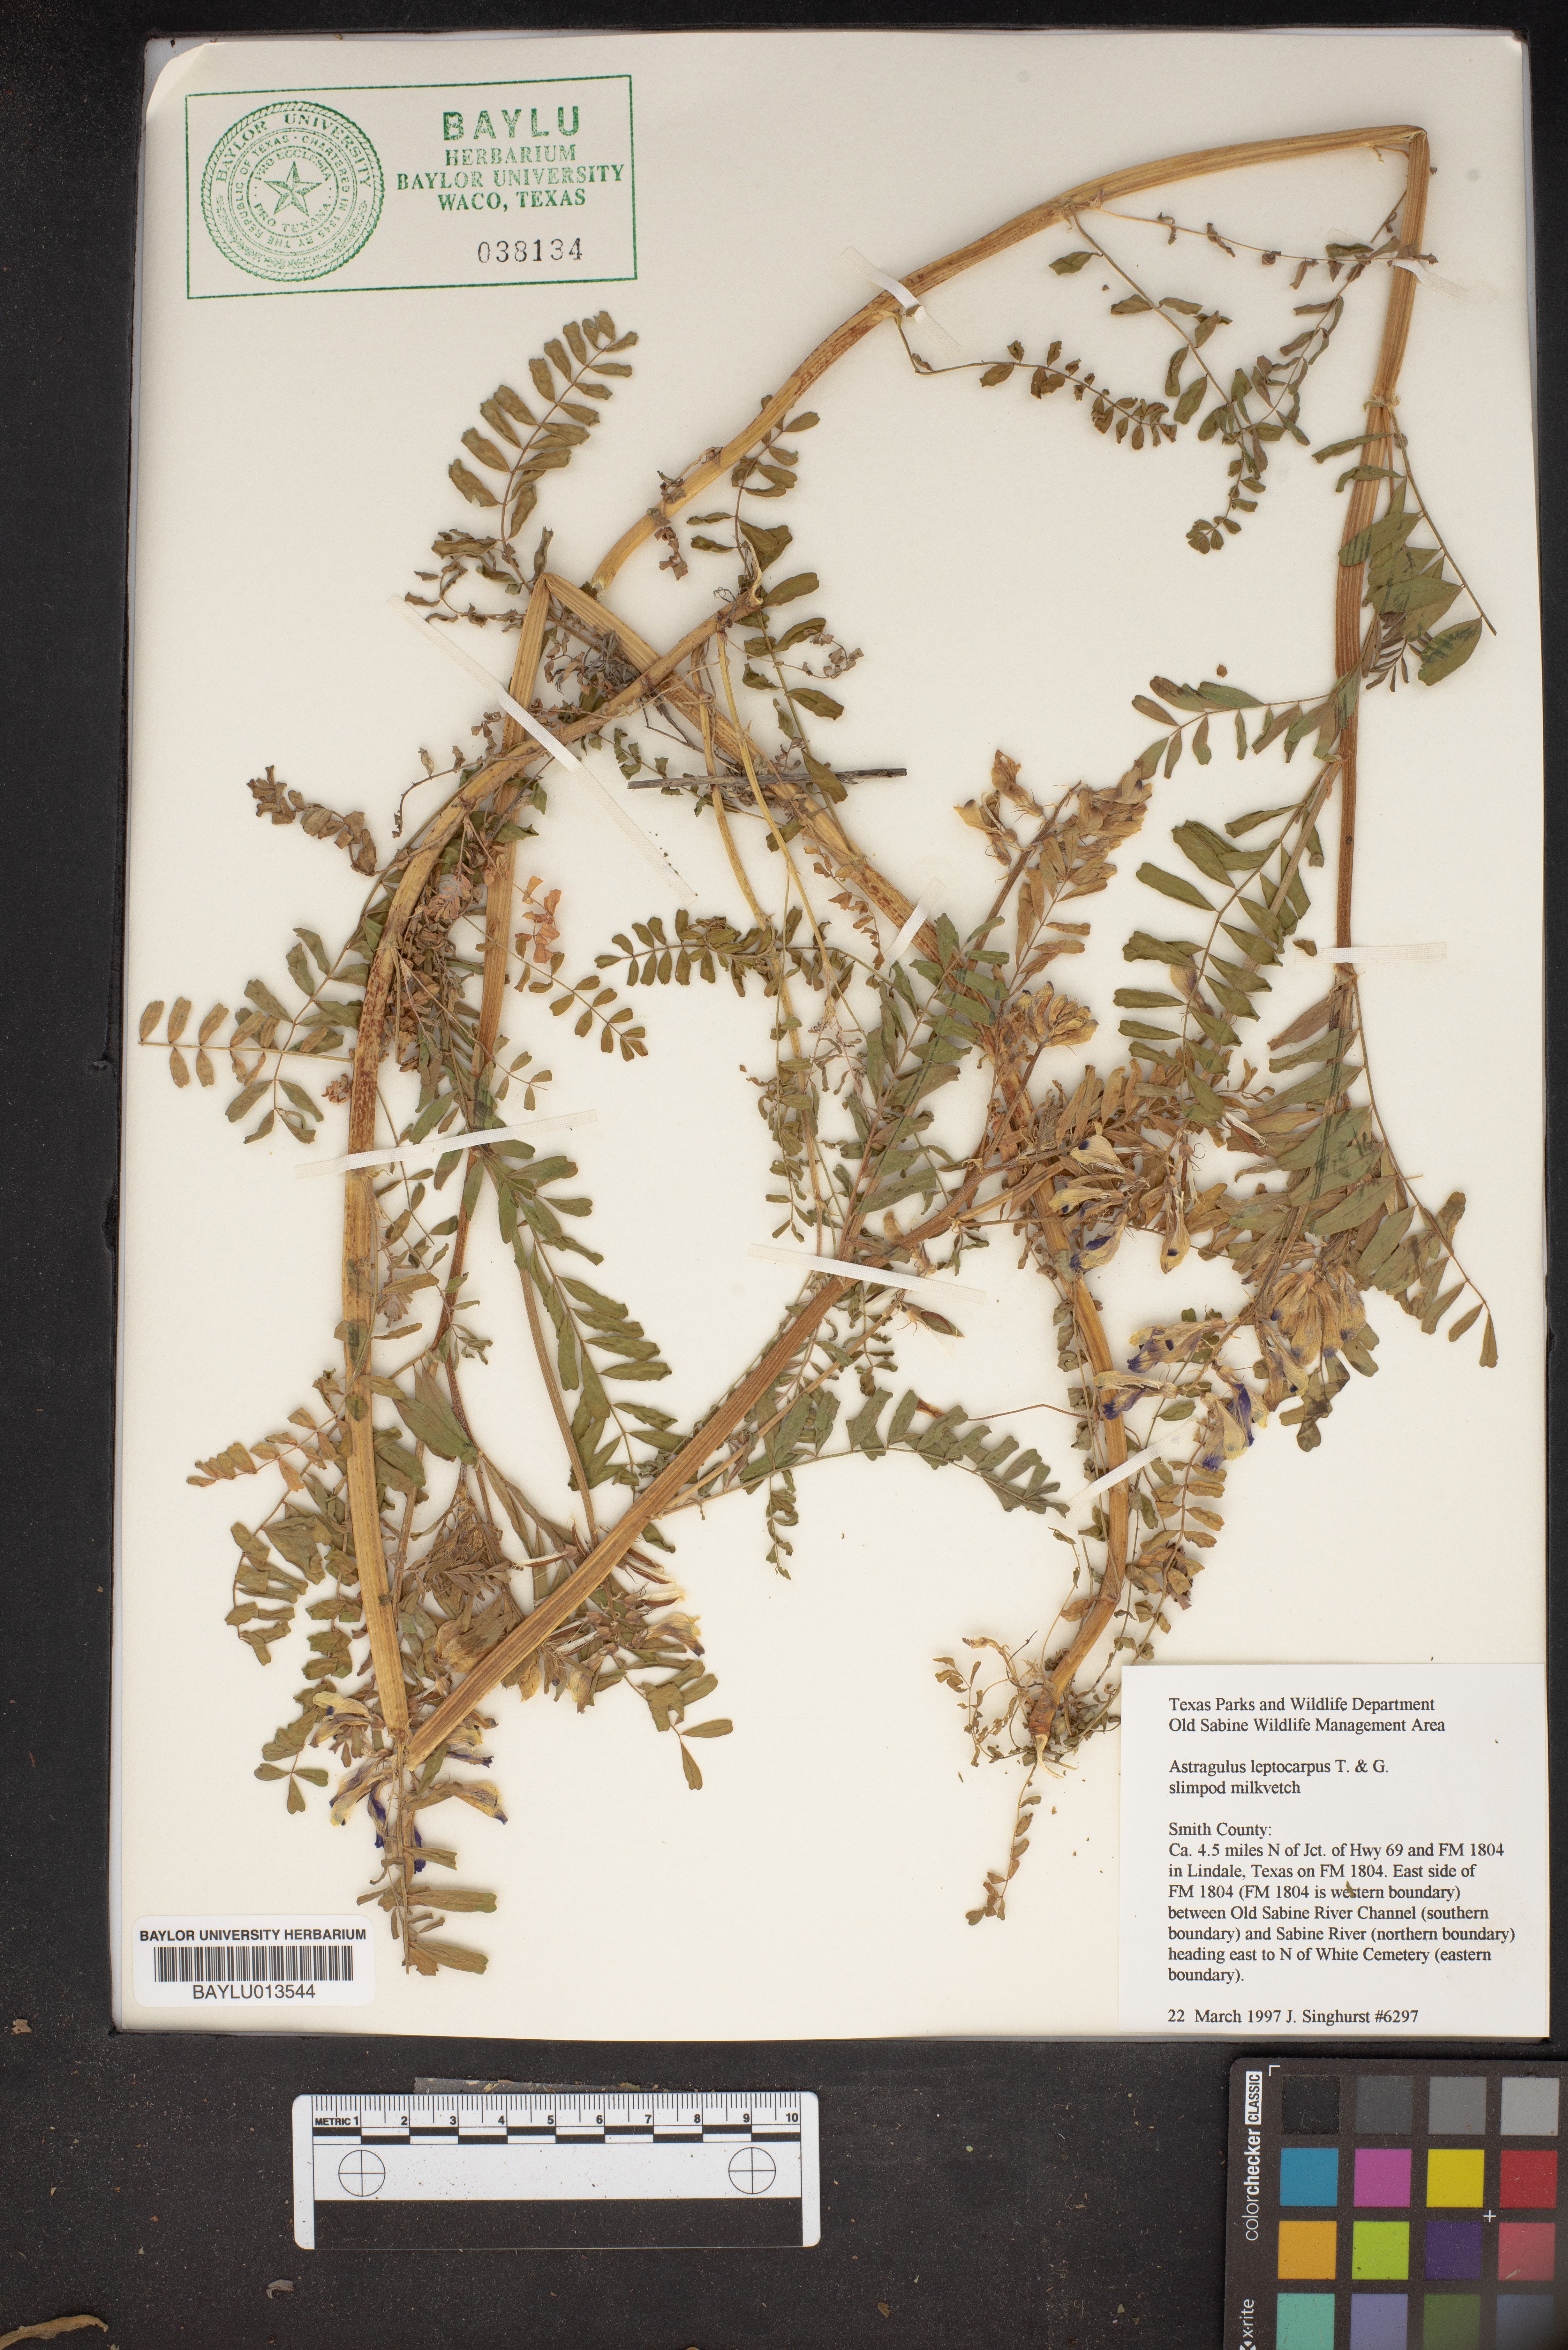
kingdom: Plantae
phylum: Tracheophyta
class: Magnoliopsida
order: Fabales
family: Fabaceae
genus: Astragalus
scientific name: Astragalus leptocarpus
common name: Bodkin milk-vetch
